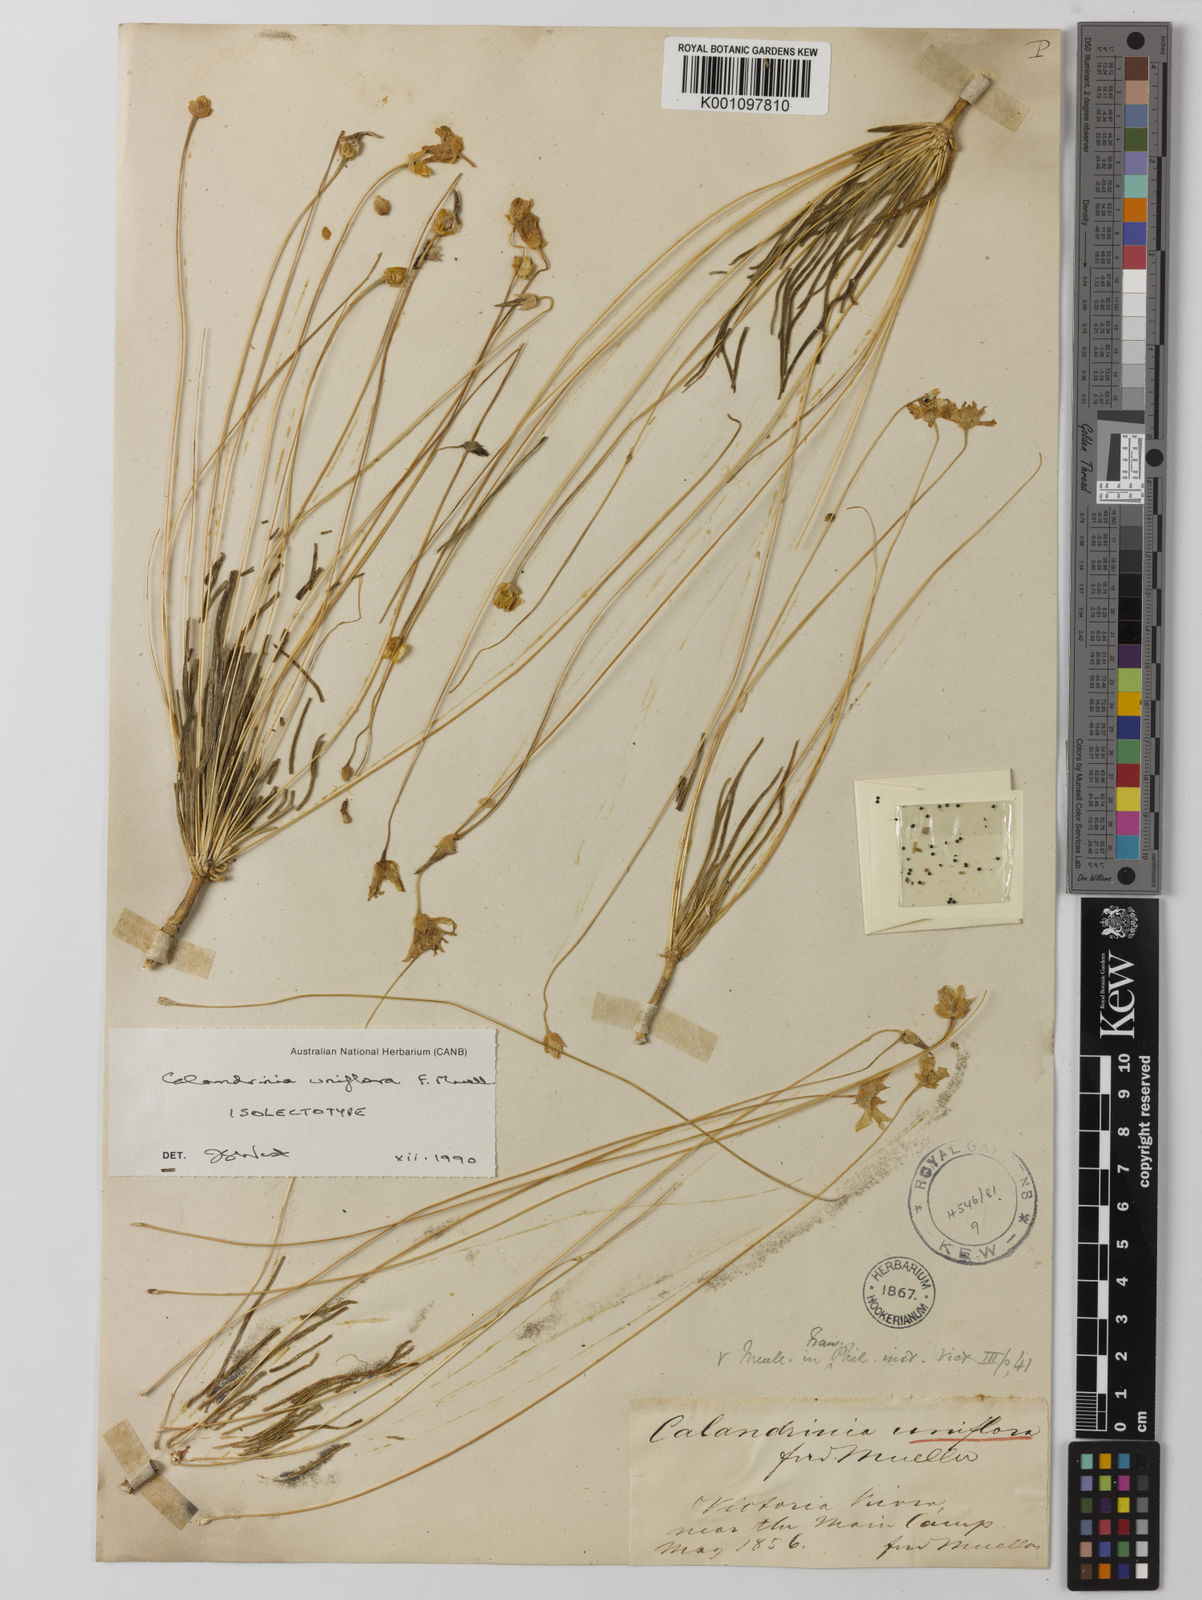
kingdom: Plantae
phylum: Tracheophyta
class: Magnoliopsida
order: Caryophyllales
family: Montiaceae
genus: Rumicastrum
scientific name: Rumicastrum uniflorum
